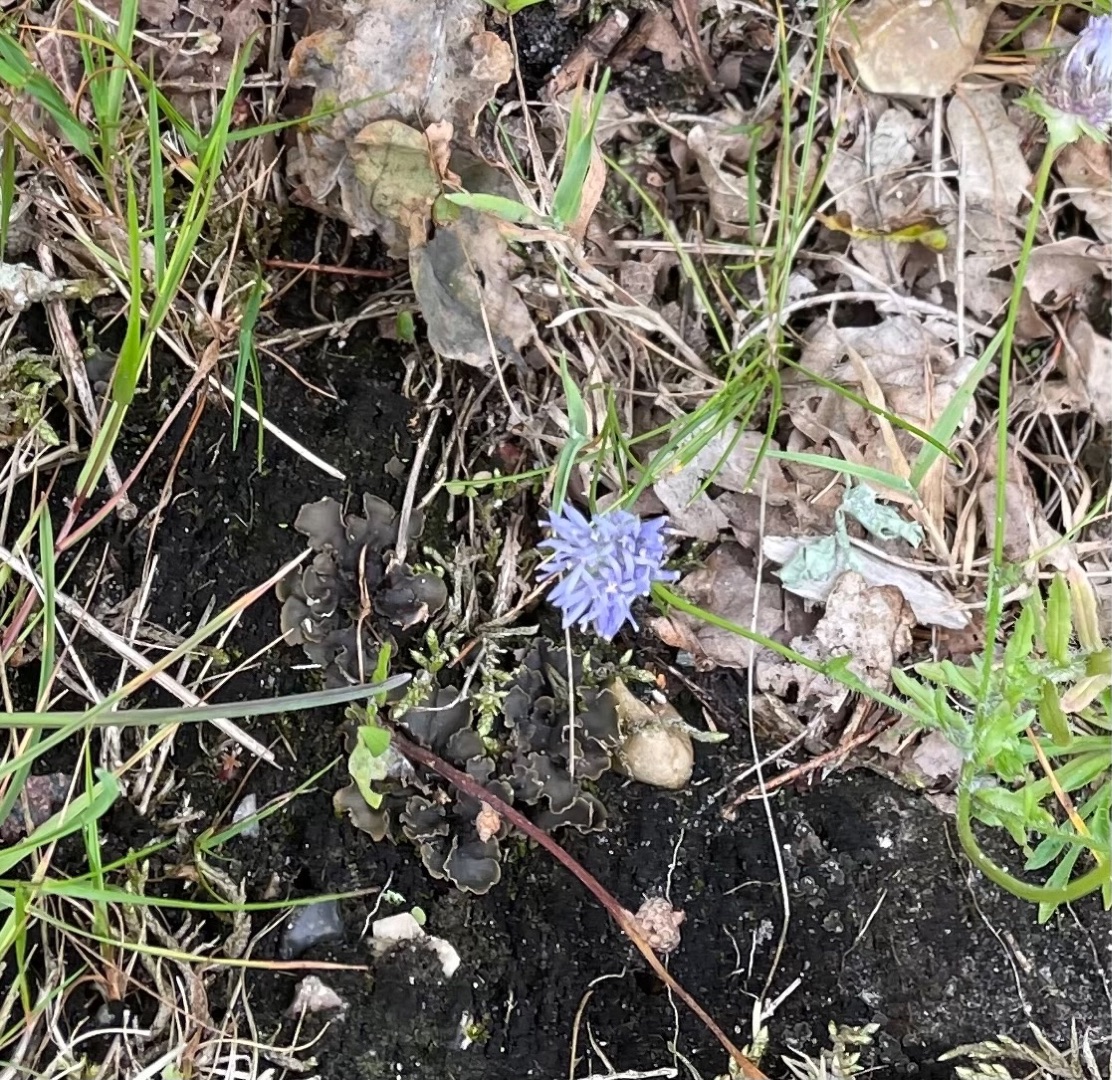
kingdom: Plantae
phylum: Tracheophyta
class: Magnoliopsida
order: Asterales
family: Campanulaceae
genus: Jasione
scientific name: Jasione montana
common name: Blåmunke
